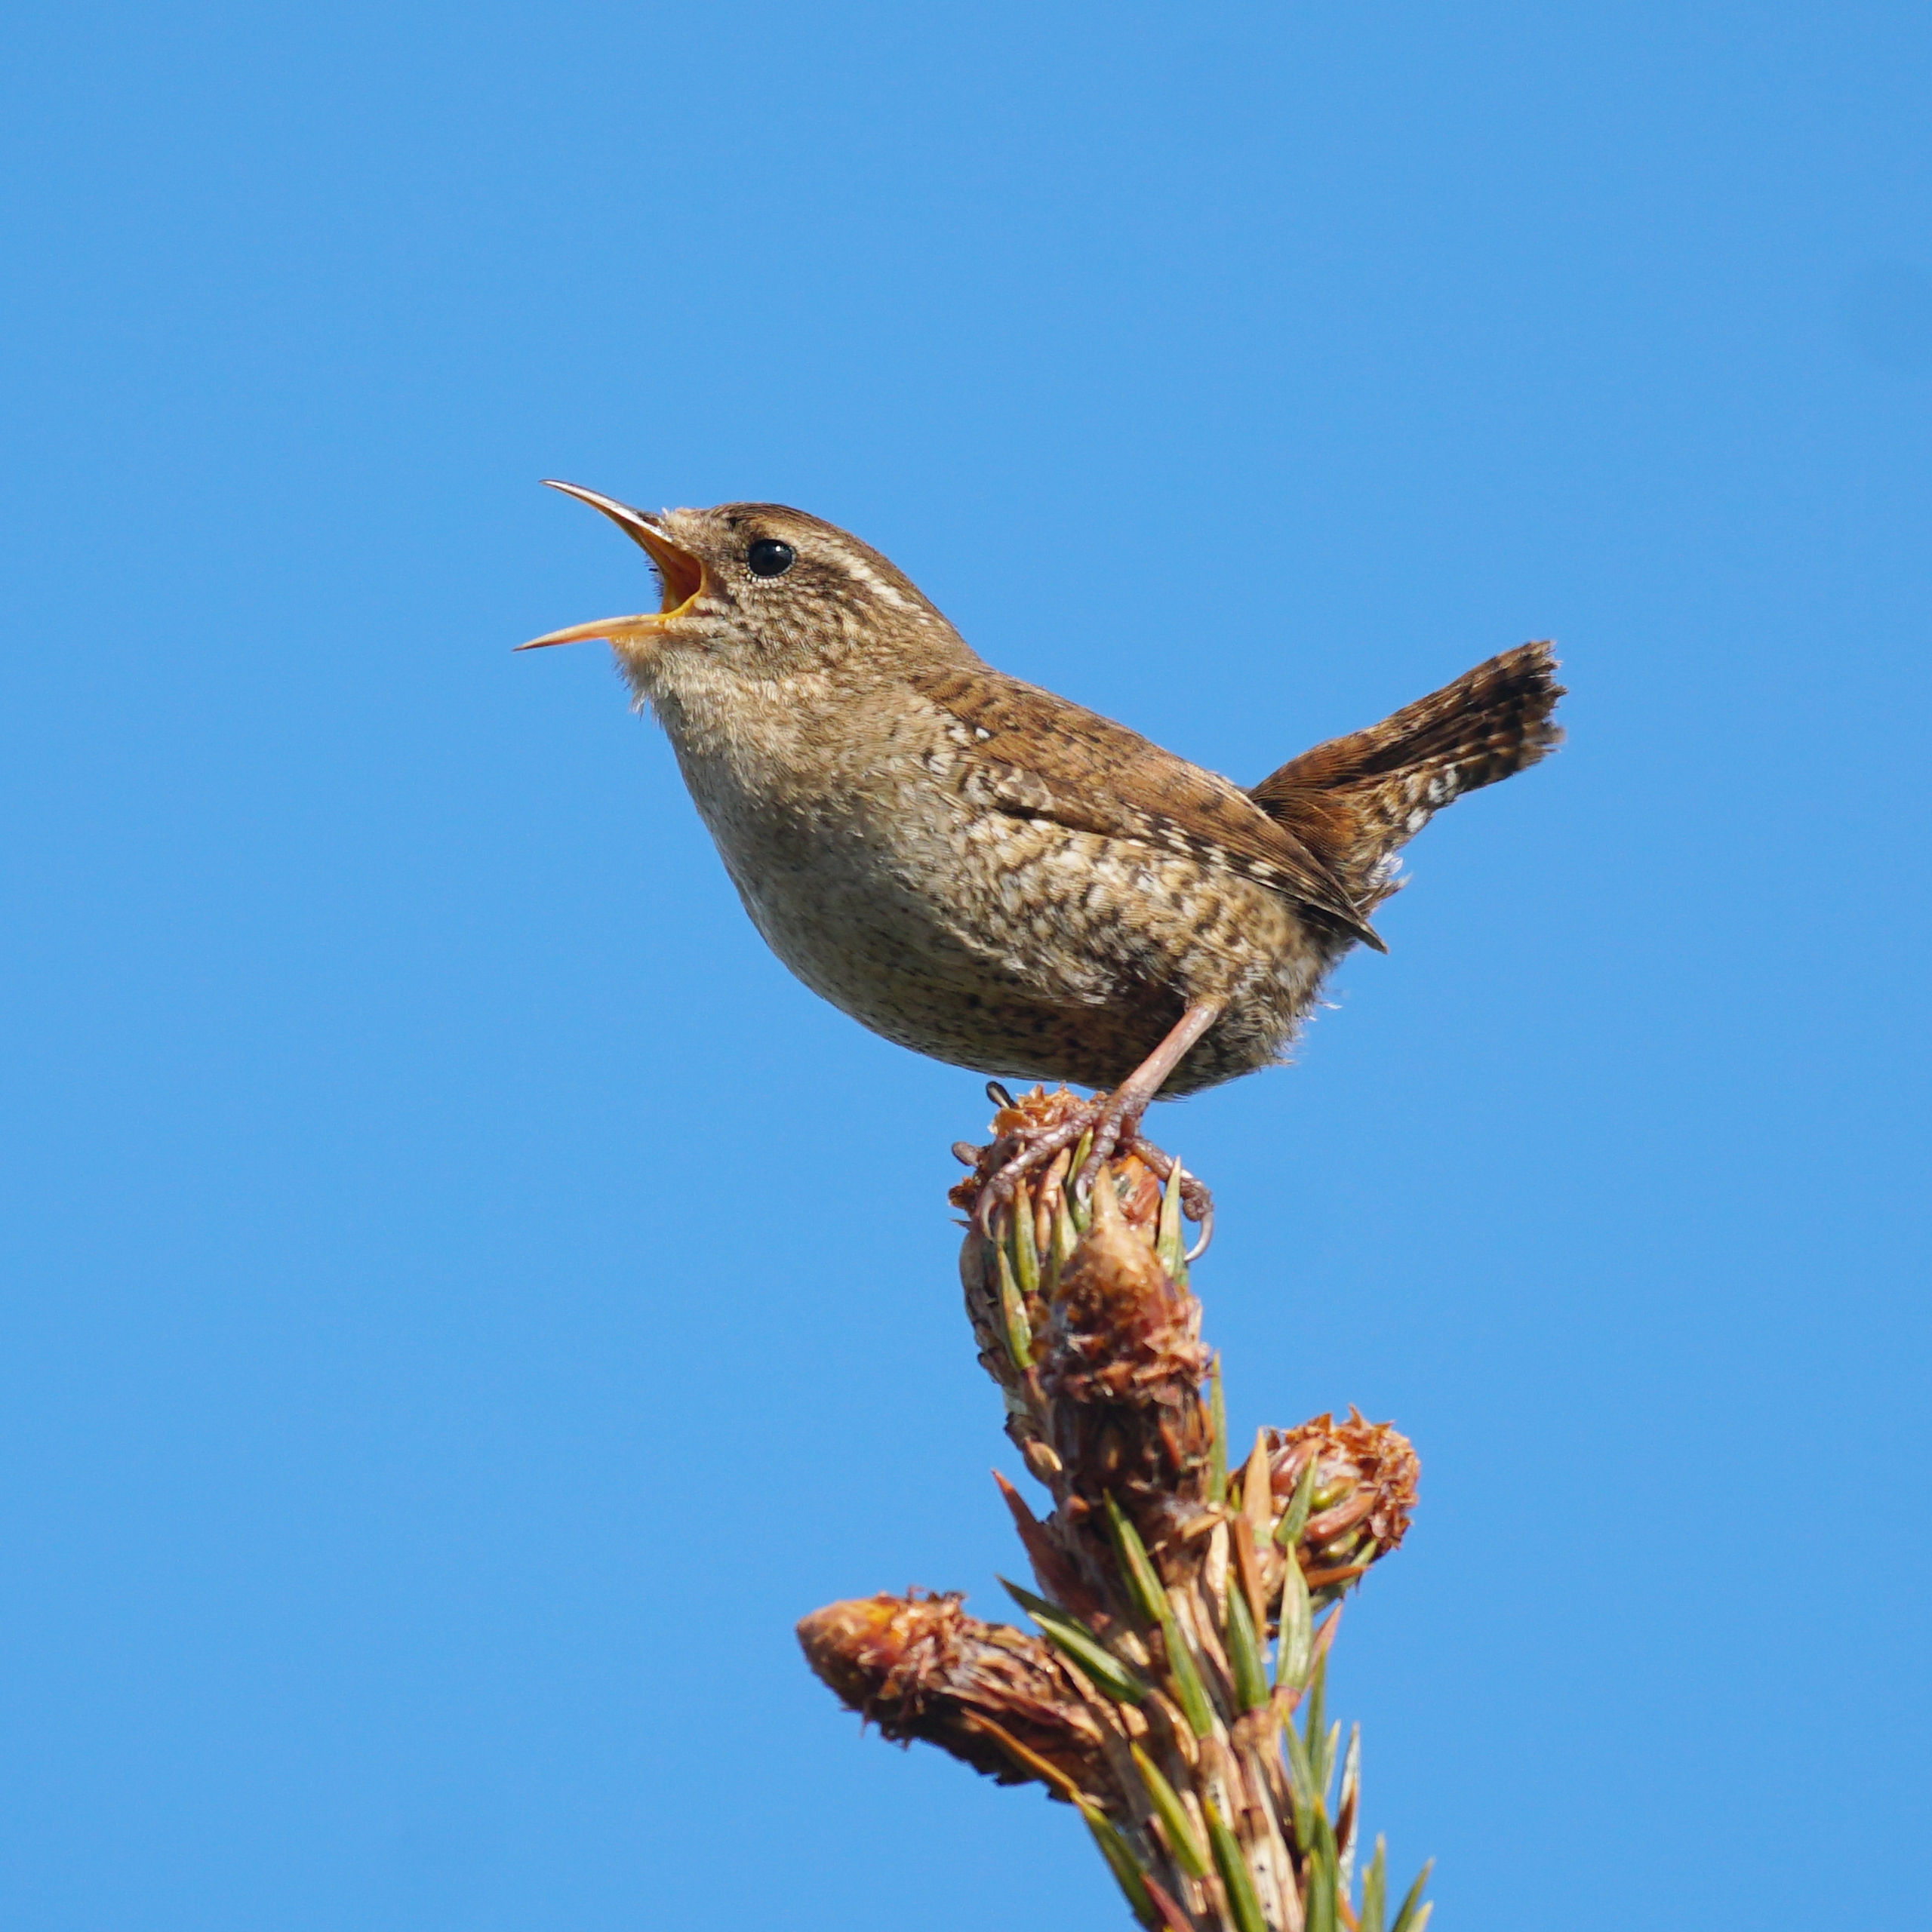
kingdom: Animalia
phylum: Chordata
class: Aves
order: Passeriformes
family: Troglodytidae
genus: Troglodytes
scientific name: Troglodytes troglodytes
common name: Gærdesmutte
